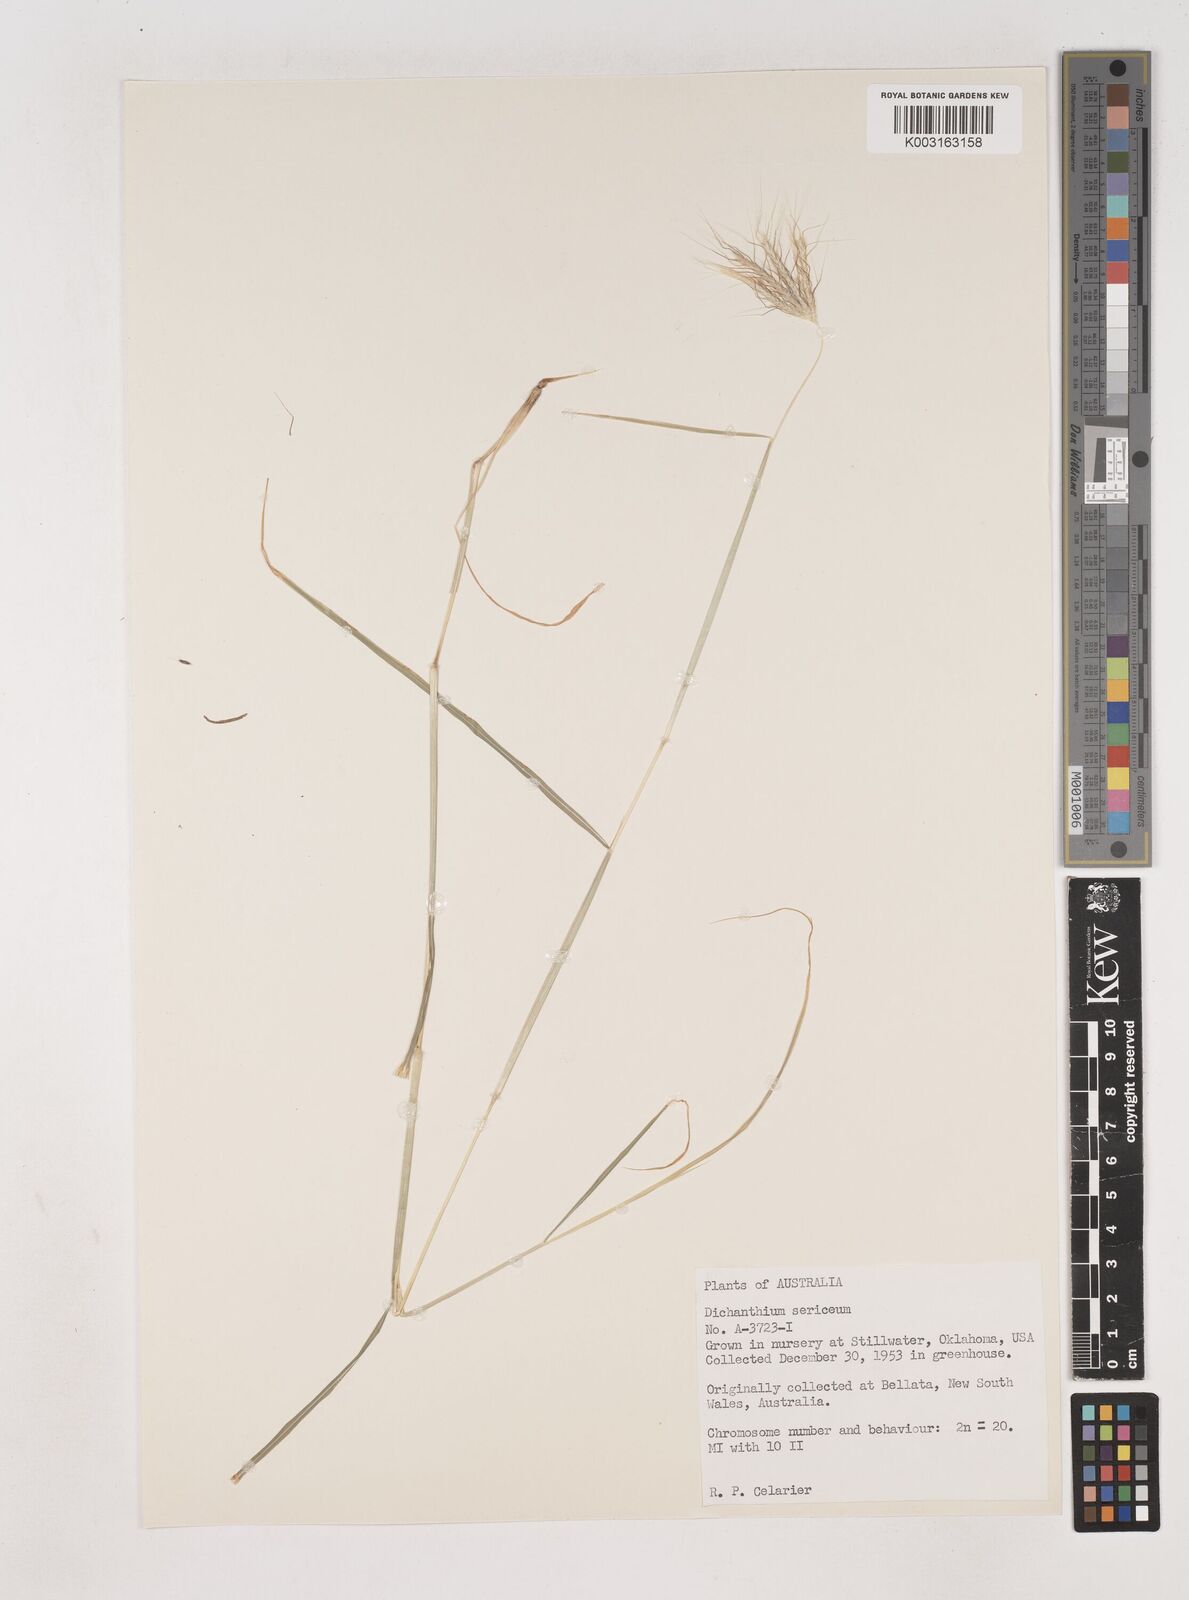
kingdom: Plantae
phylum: Tracheophyta
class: Liliopsida
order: Poales
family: Poaceae
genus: Dichanthium
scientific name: Dichanthium sericeum
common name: Silky bluestem
